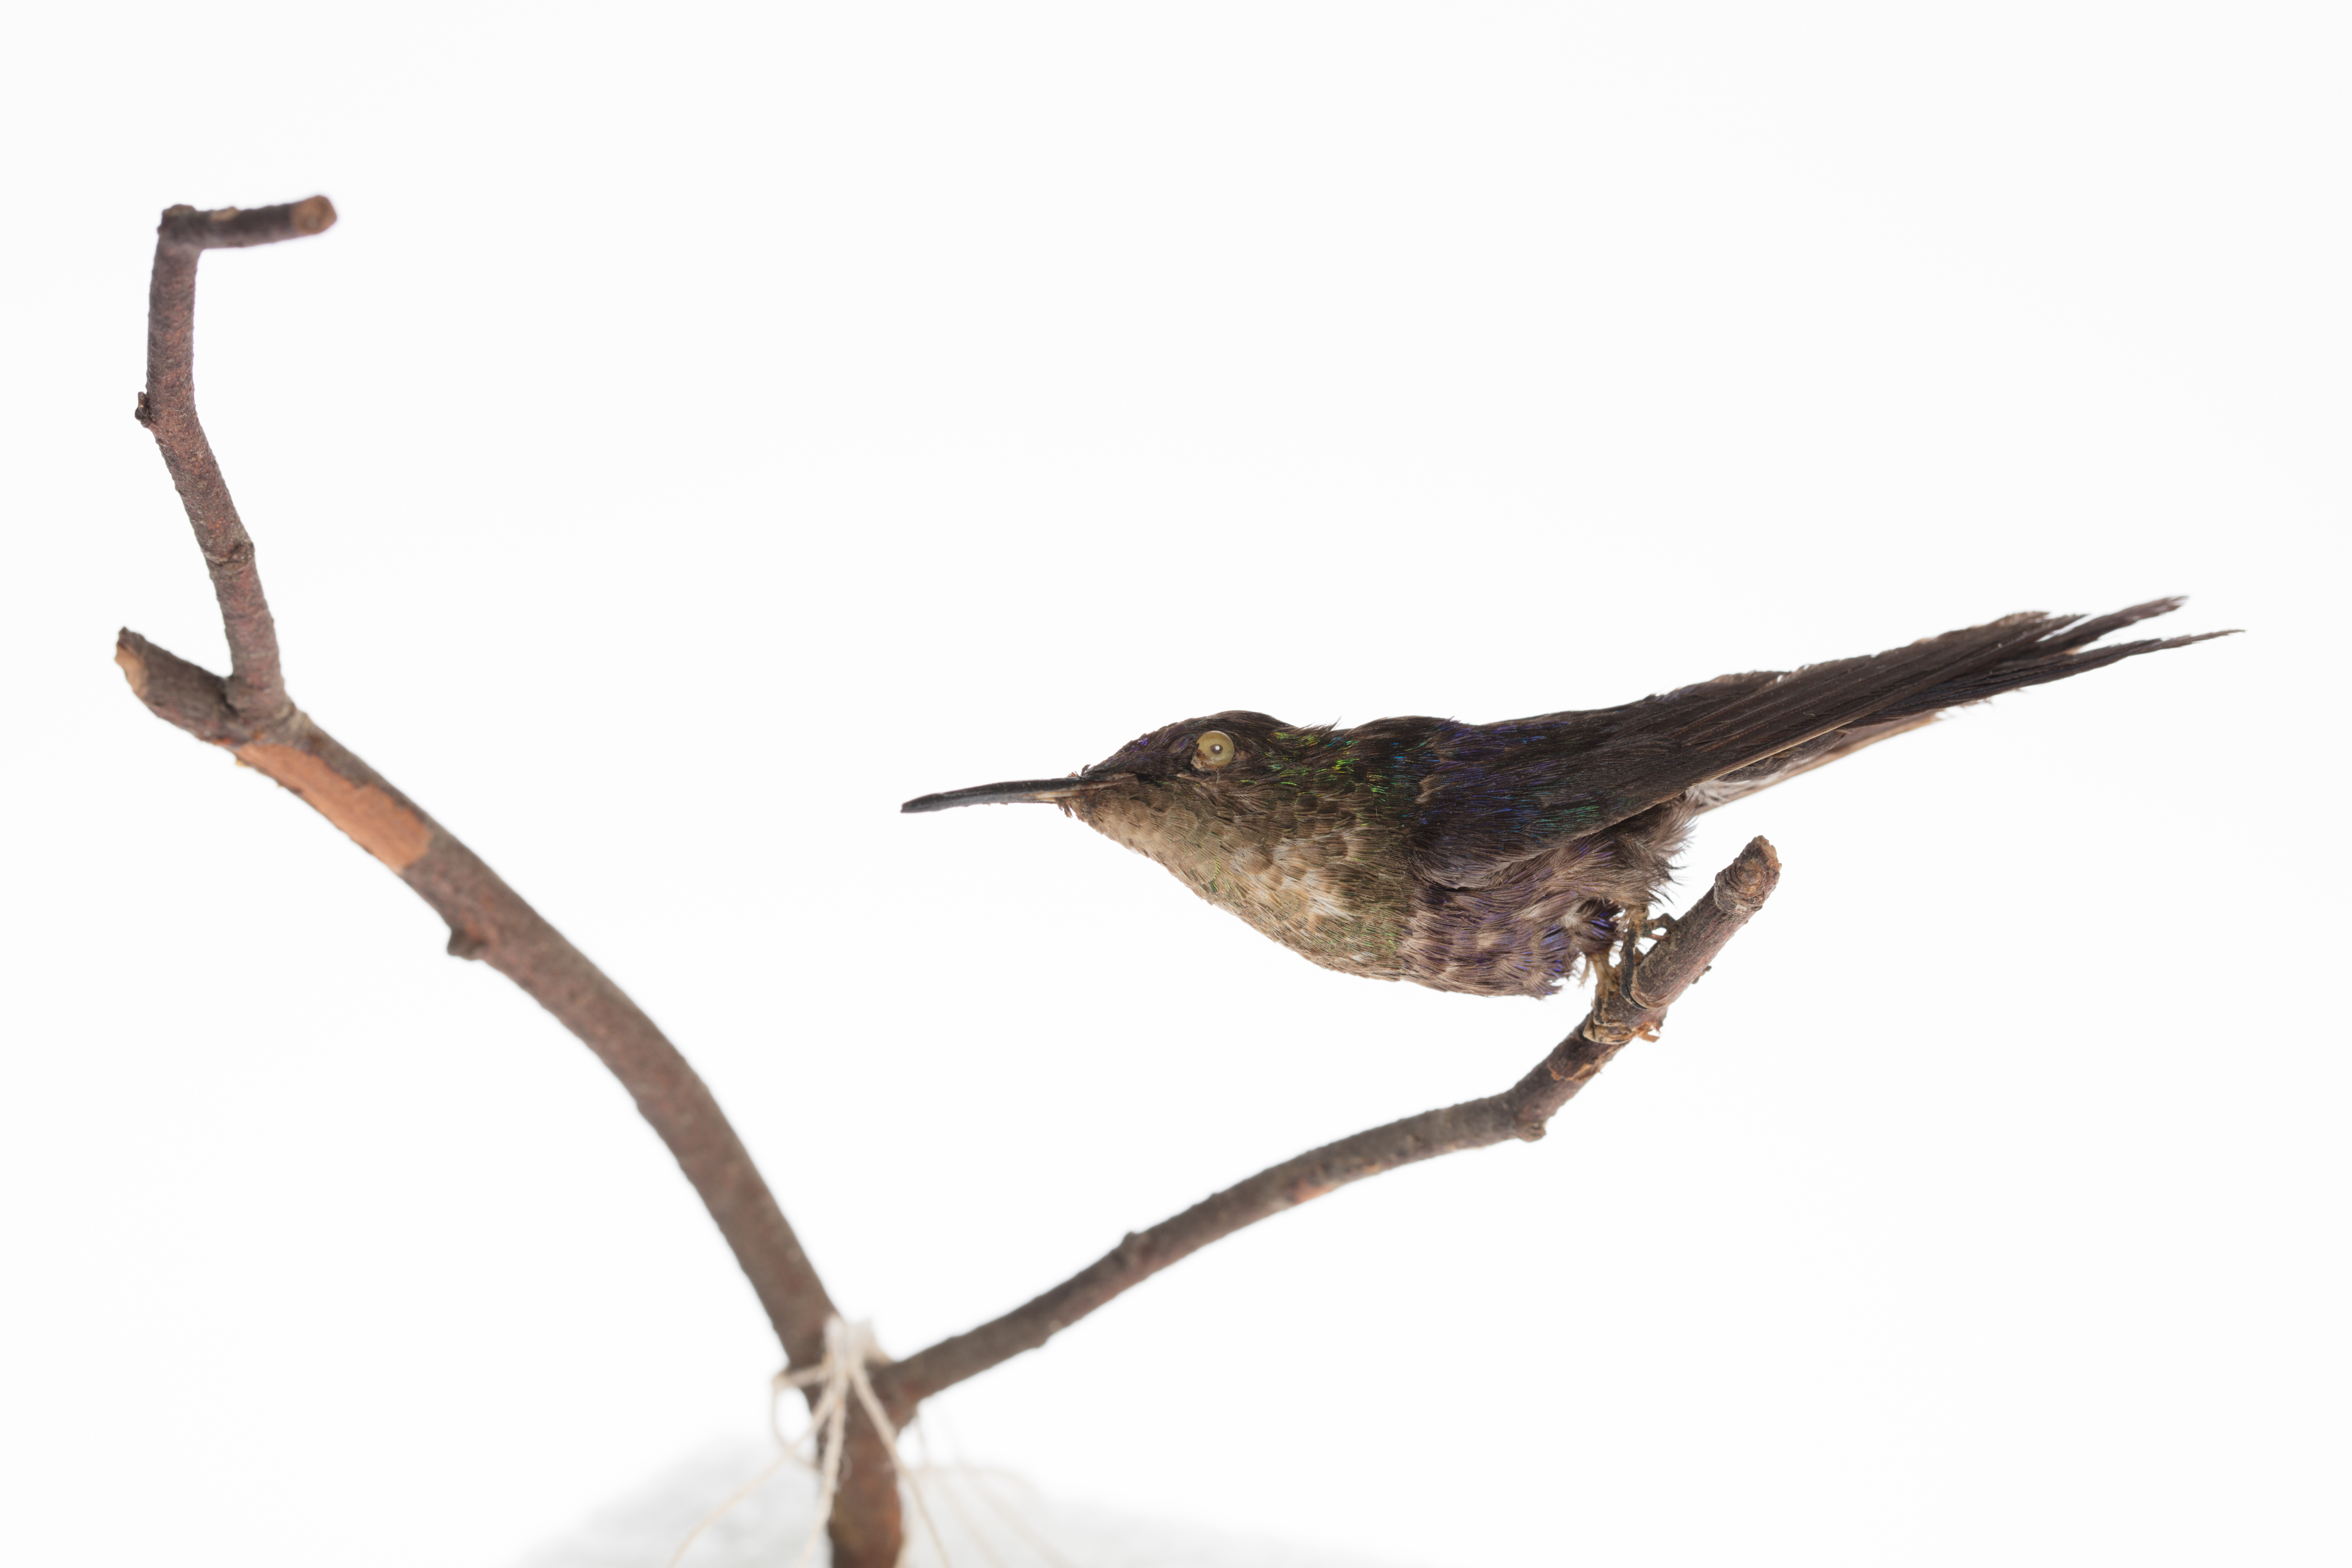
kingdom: Animalia
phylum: Chordata
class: Aves
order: Apodiformes
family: Trochilidae
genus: Thalurania
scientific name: Thalurania furcata
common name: Fork-tailed woodnymph
